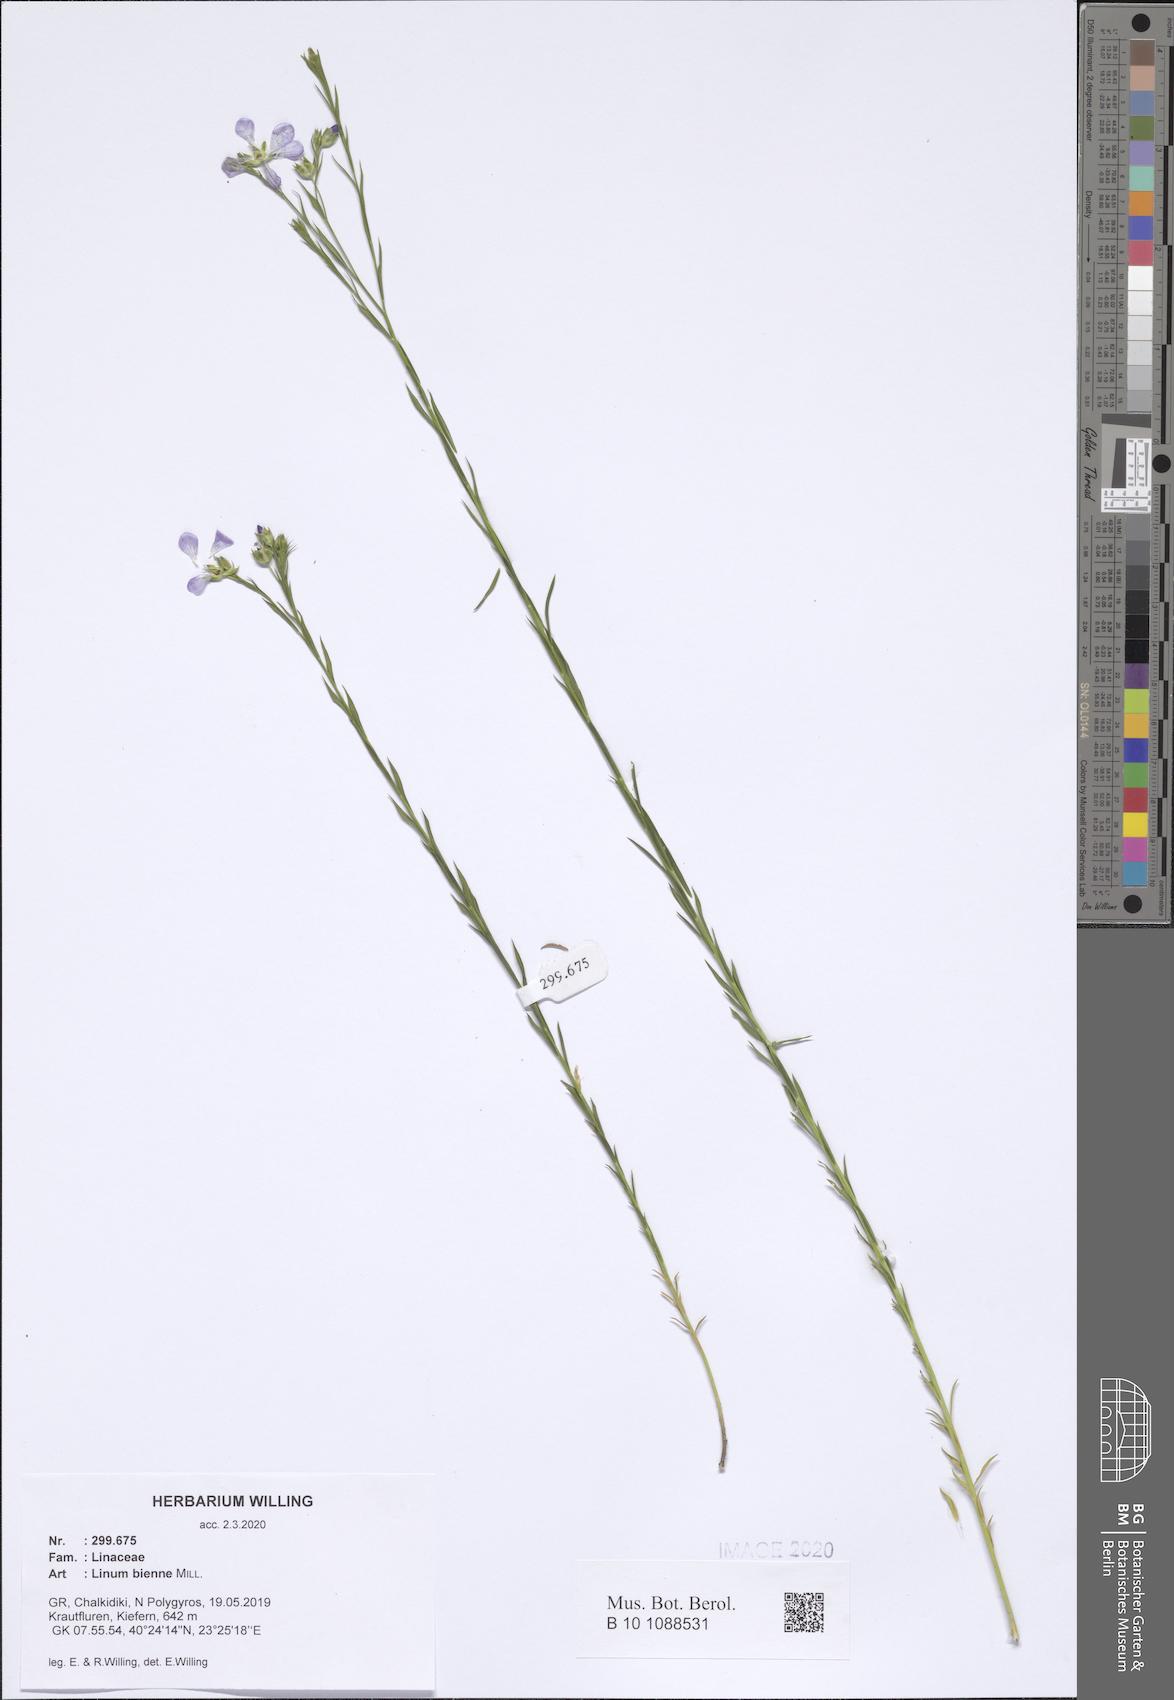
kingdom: Plantae
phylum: Tracheophyta
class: Magnoliopsida
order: Malpighiales
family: Linaceae
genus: Linum
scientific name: Linum bienne
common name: Pale flax
